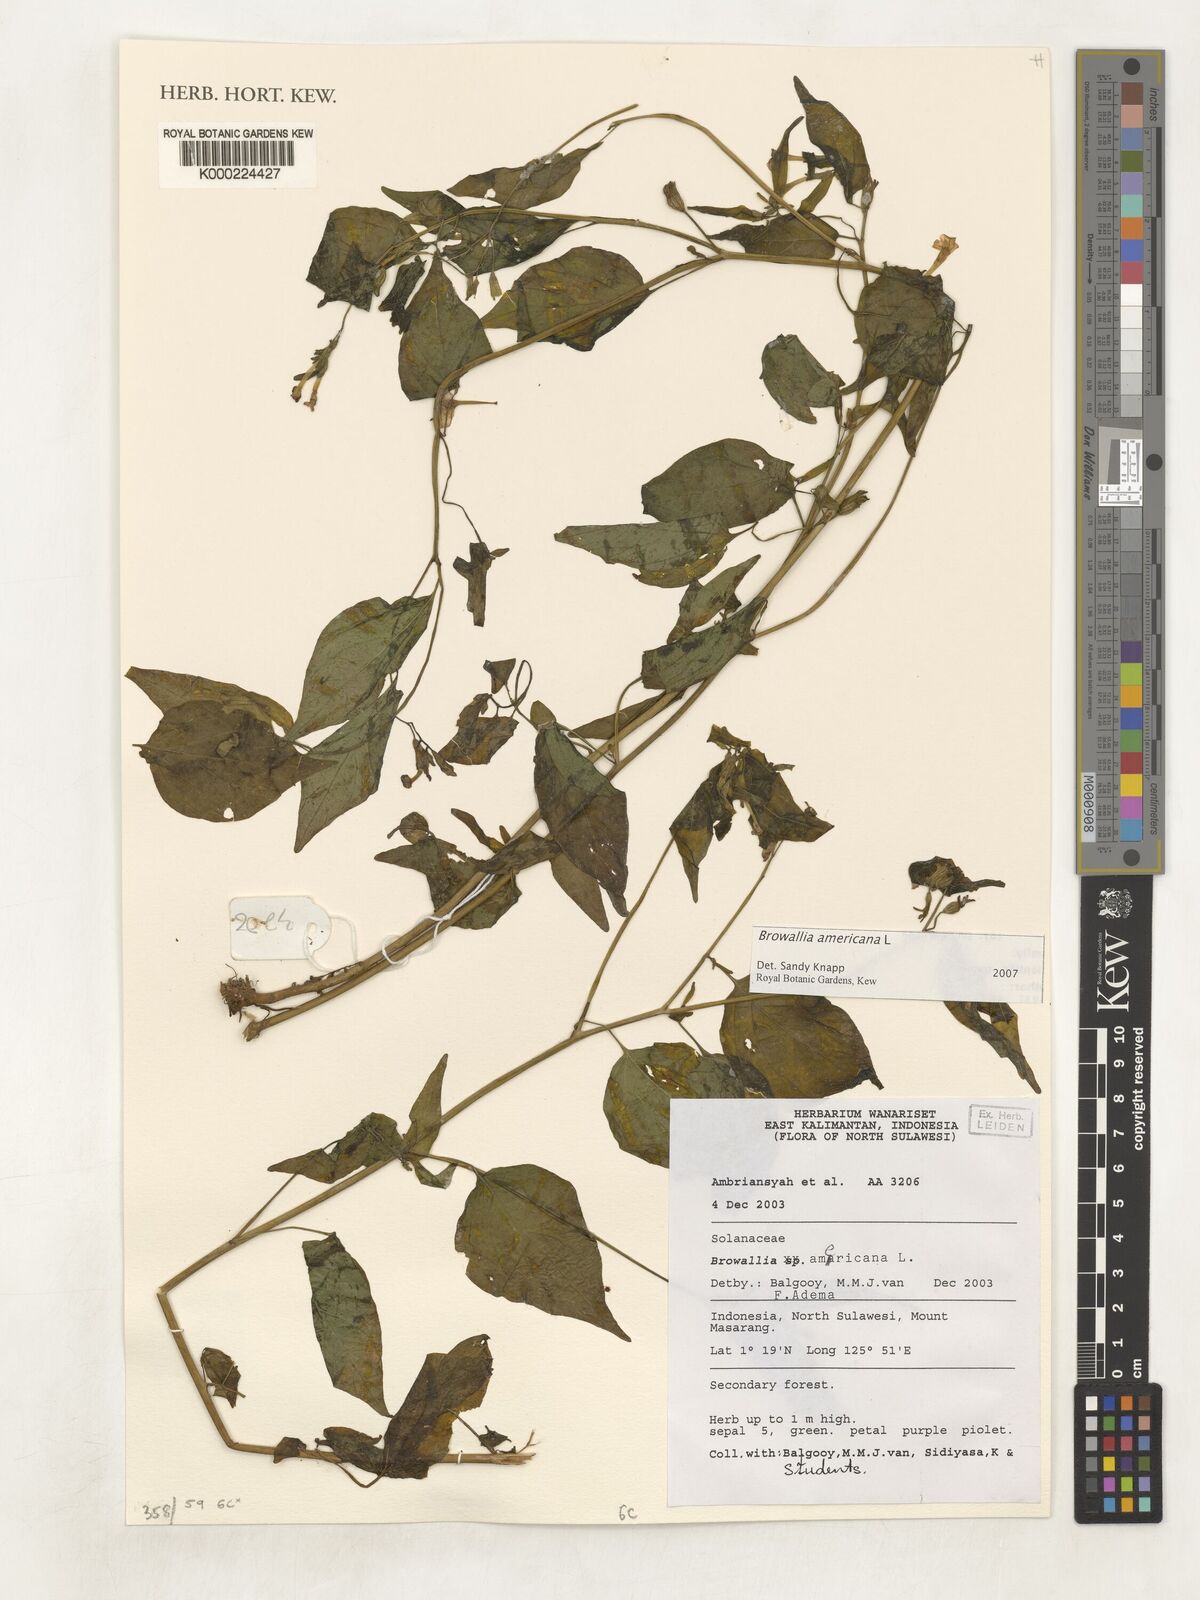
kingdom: Plantae
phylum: Tracheophyta
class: Magnoliopsida
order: Solanales
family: Solanaceae
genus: Browallia
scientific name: Browallia americana
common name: Jamaican forget-me-not
